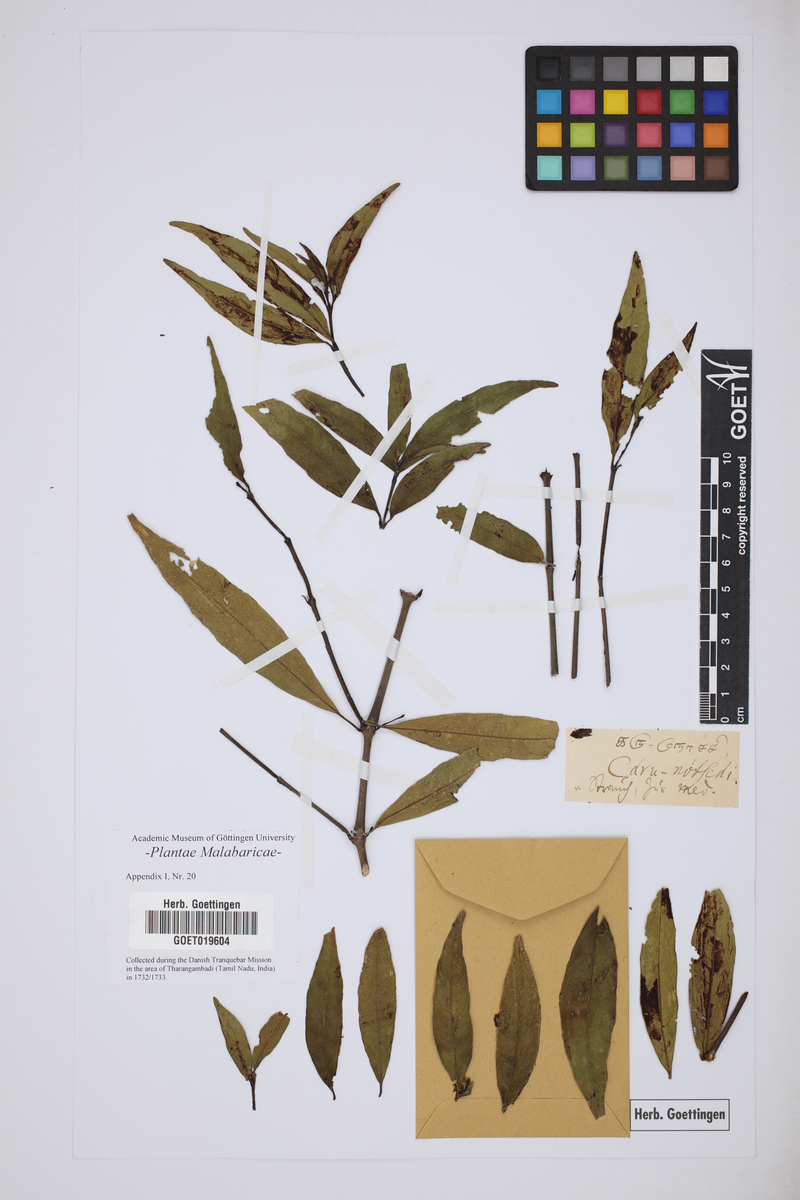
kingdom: Plantae
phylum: Tracheophyta
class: Magnoliopsida
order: Lamiales
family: Acanthaceae
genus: Justicia
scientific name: Justicia gendarussa
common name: Warer willow
